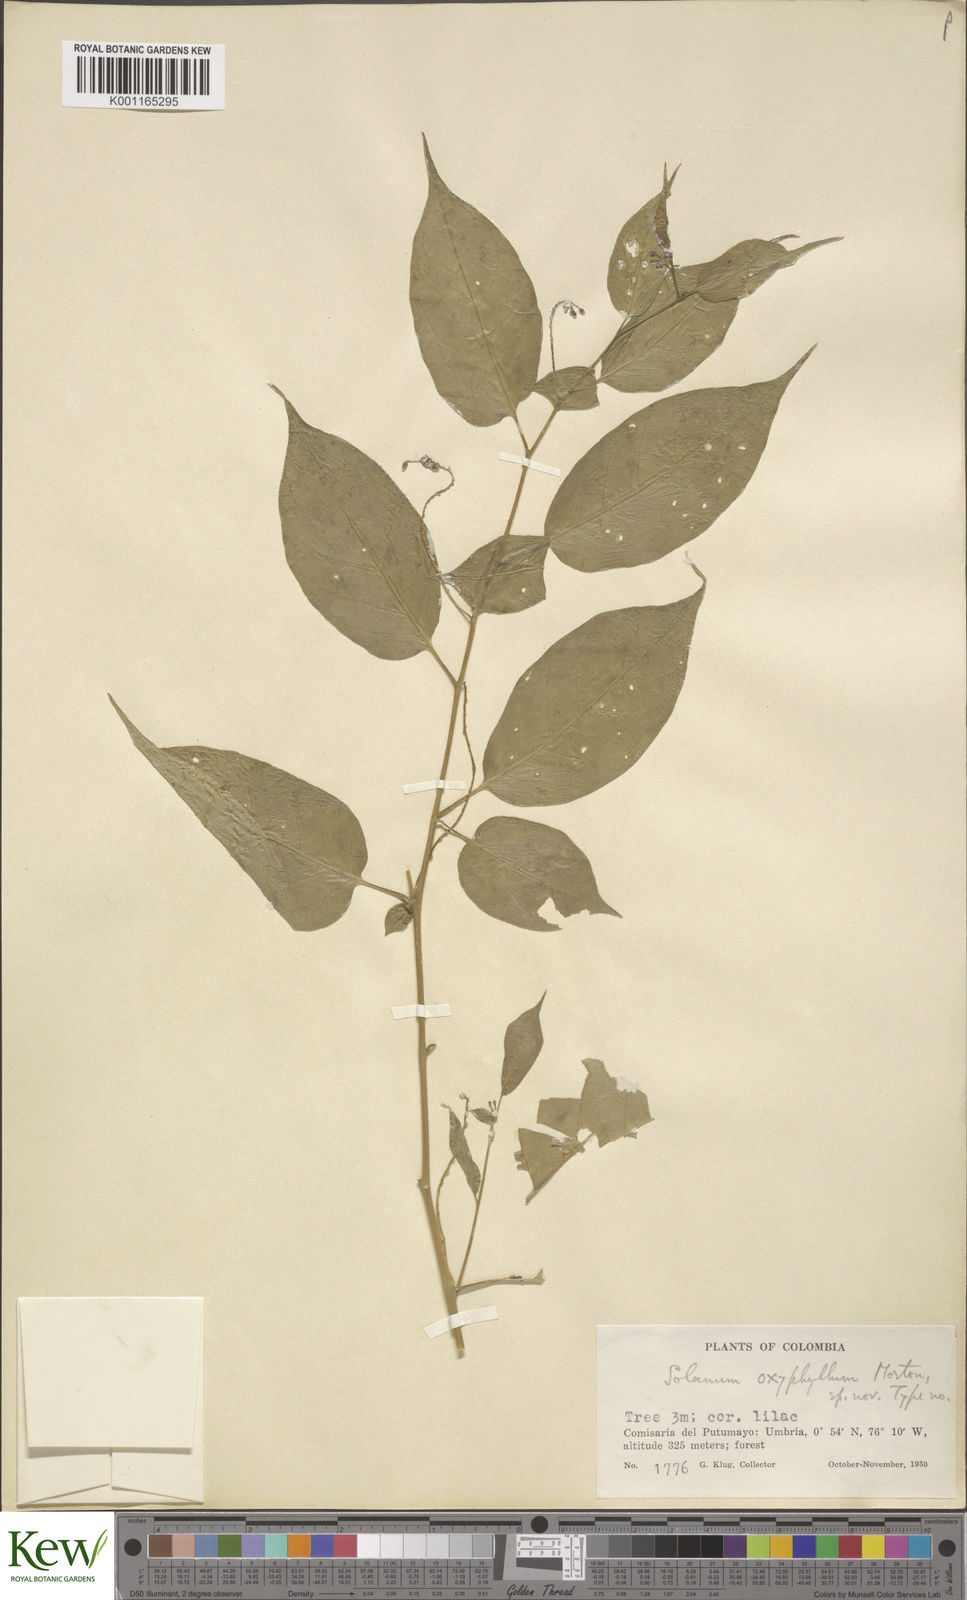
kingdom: Plantae
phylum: Tracheophyta
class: Magnoliopsida
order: Solanales
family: Solanaceae
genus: Solanum
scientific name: Solanum oxyphyllum
